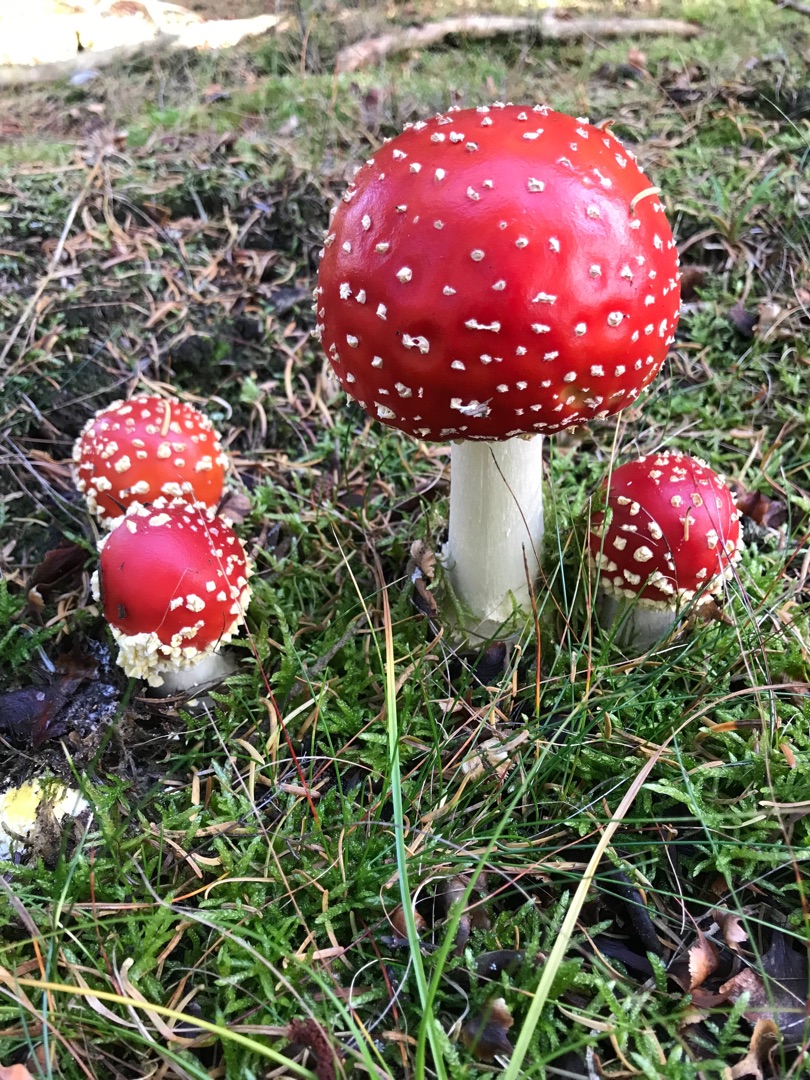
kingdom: Fungi
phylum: Basidiomycota
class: Agaricomycetes
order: Agaricales
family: Amanitaceae
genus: Amanita
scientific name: Amanita muscaria
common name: Rød fluesvamp
